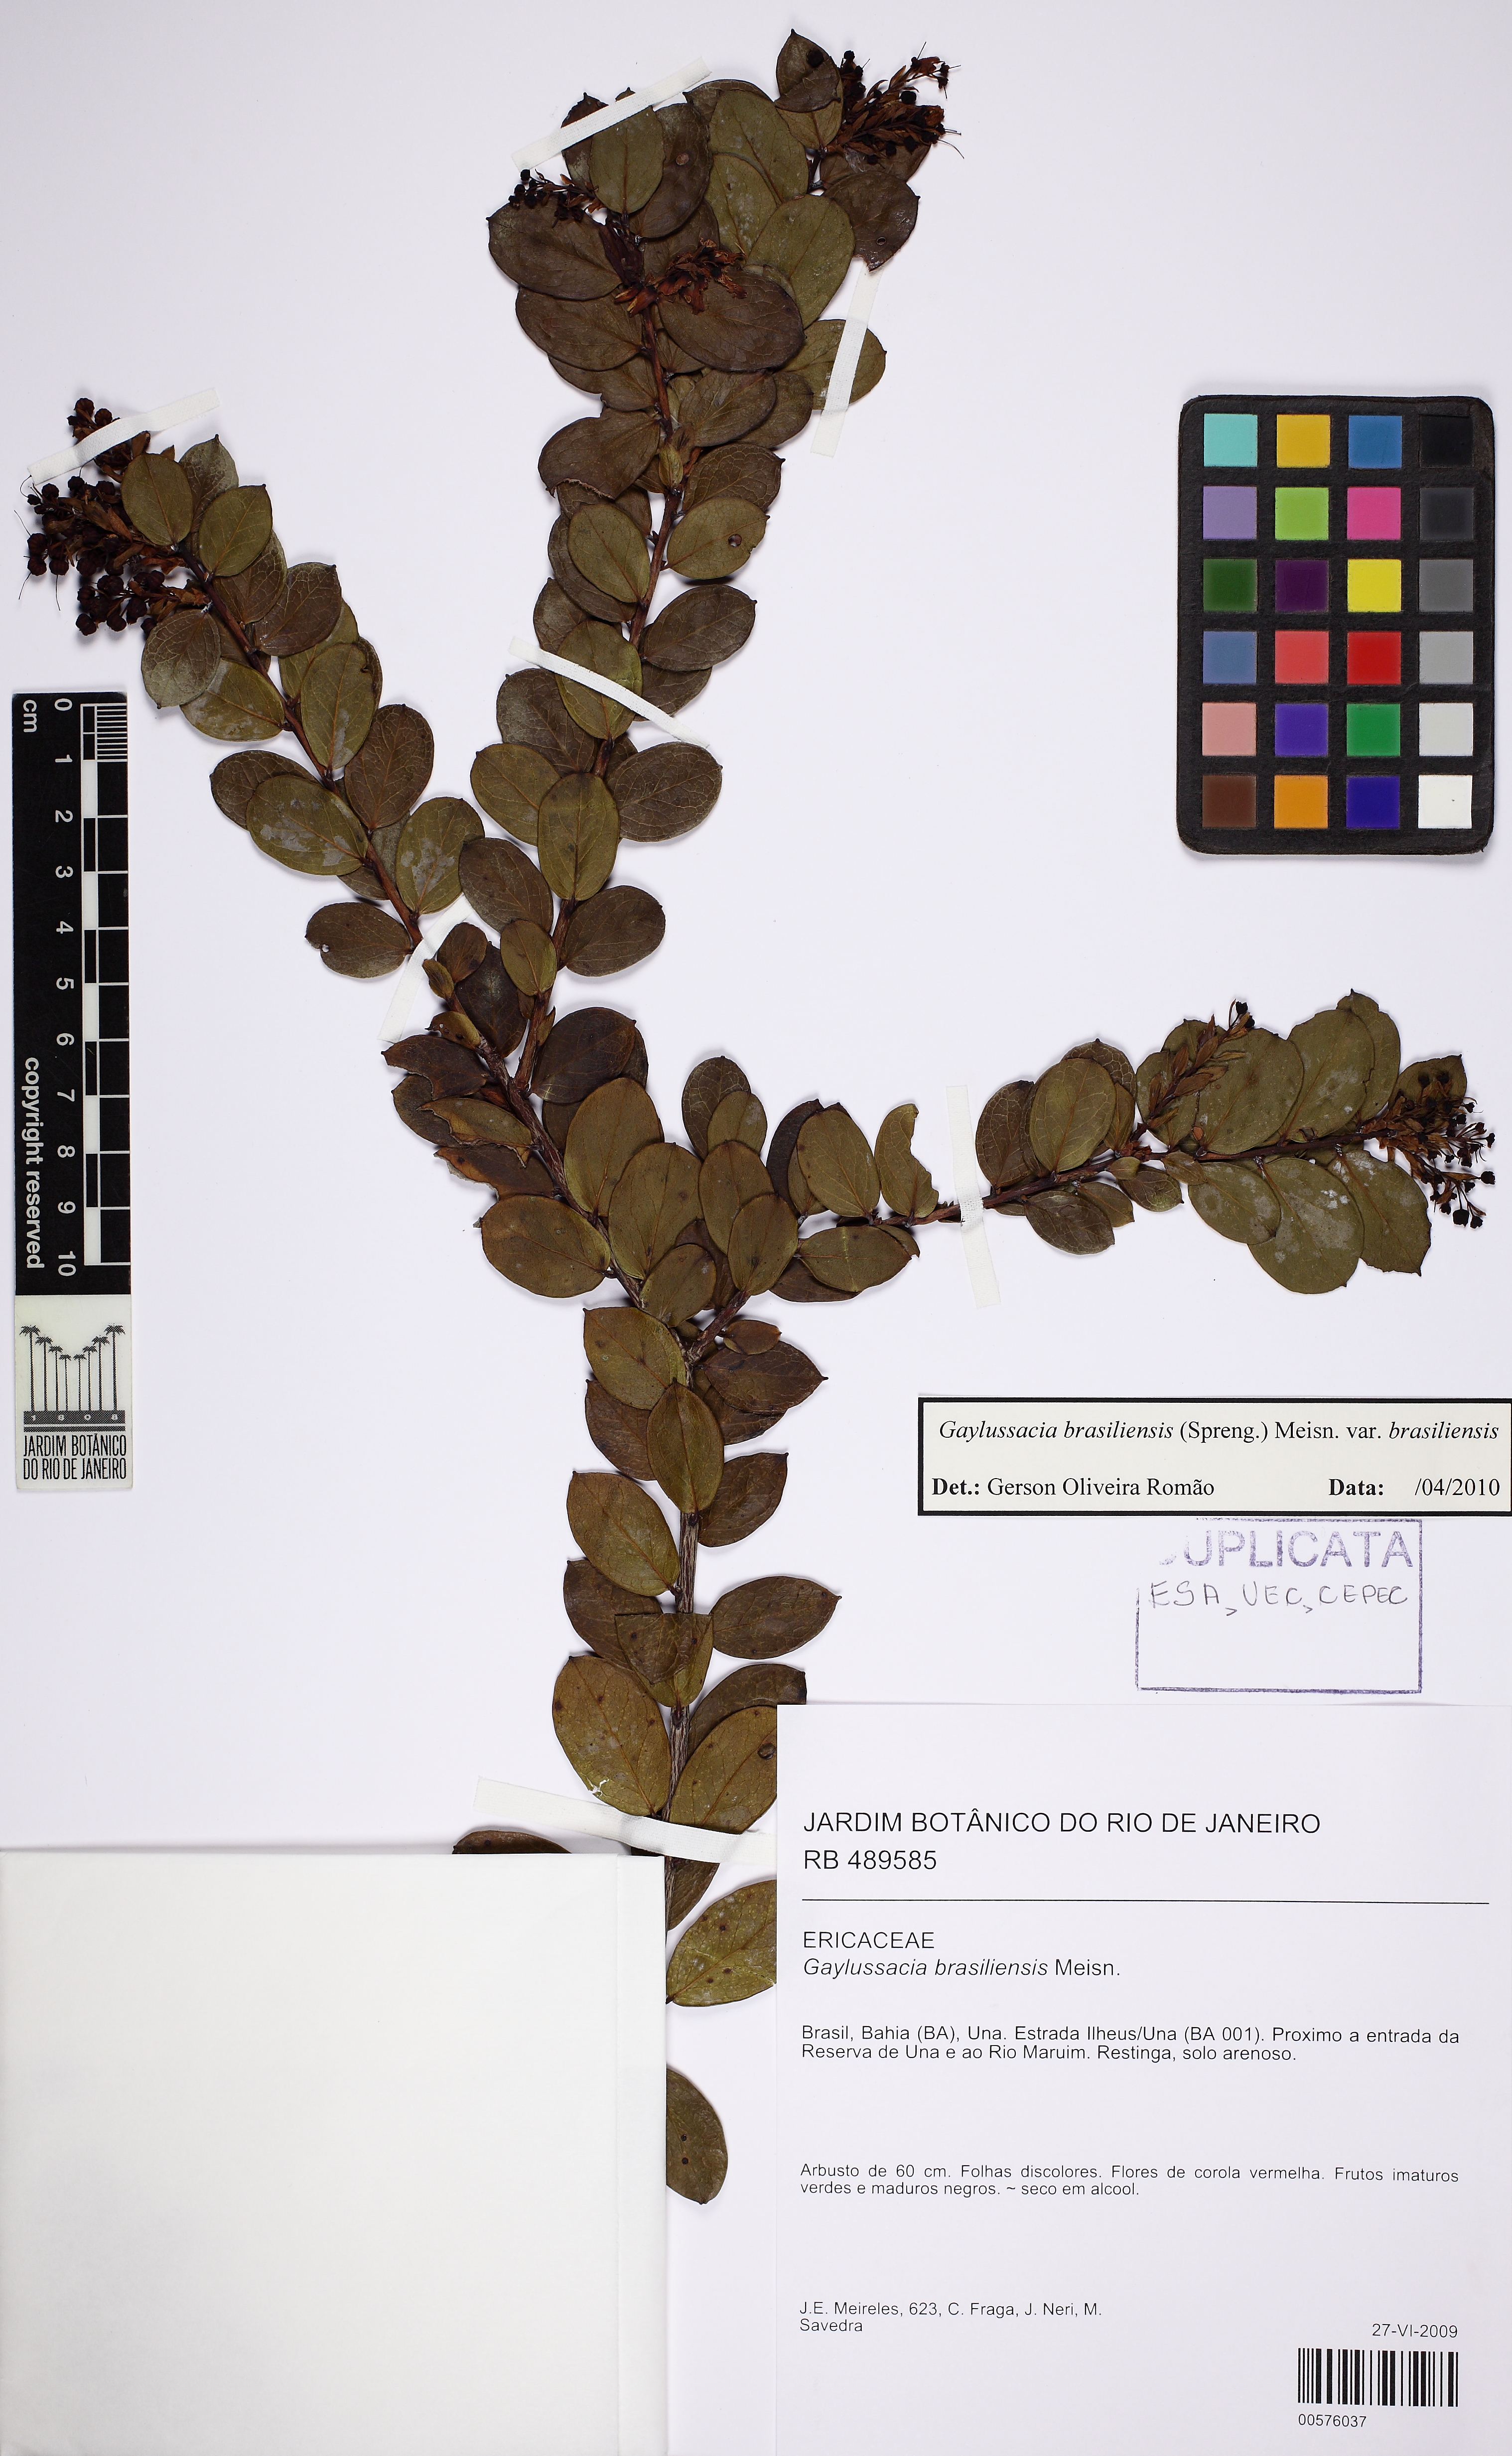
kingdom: Plantae
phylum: Tracheophyta
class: Magnoliopsida
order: Ericales
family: Ericaceae
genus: Gaylussacia
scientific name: Gaylussacia brasiliensis
